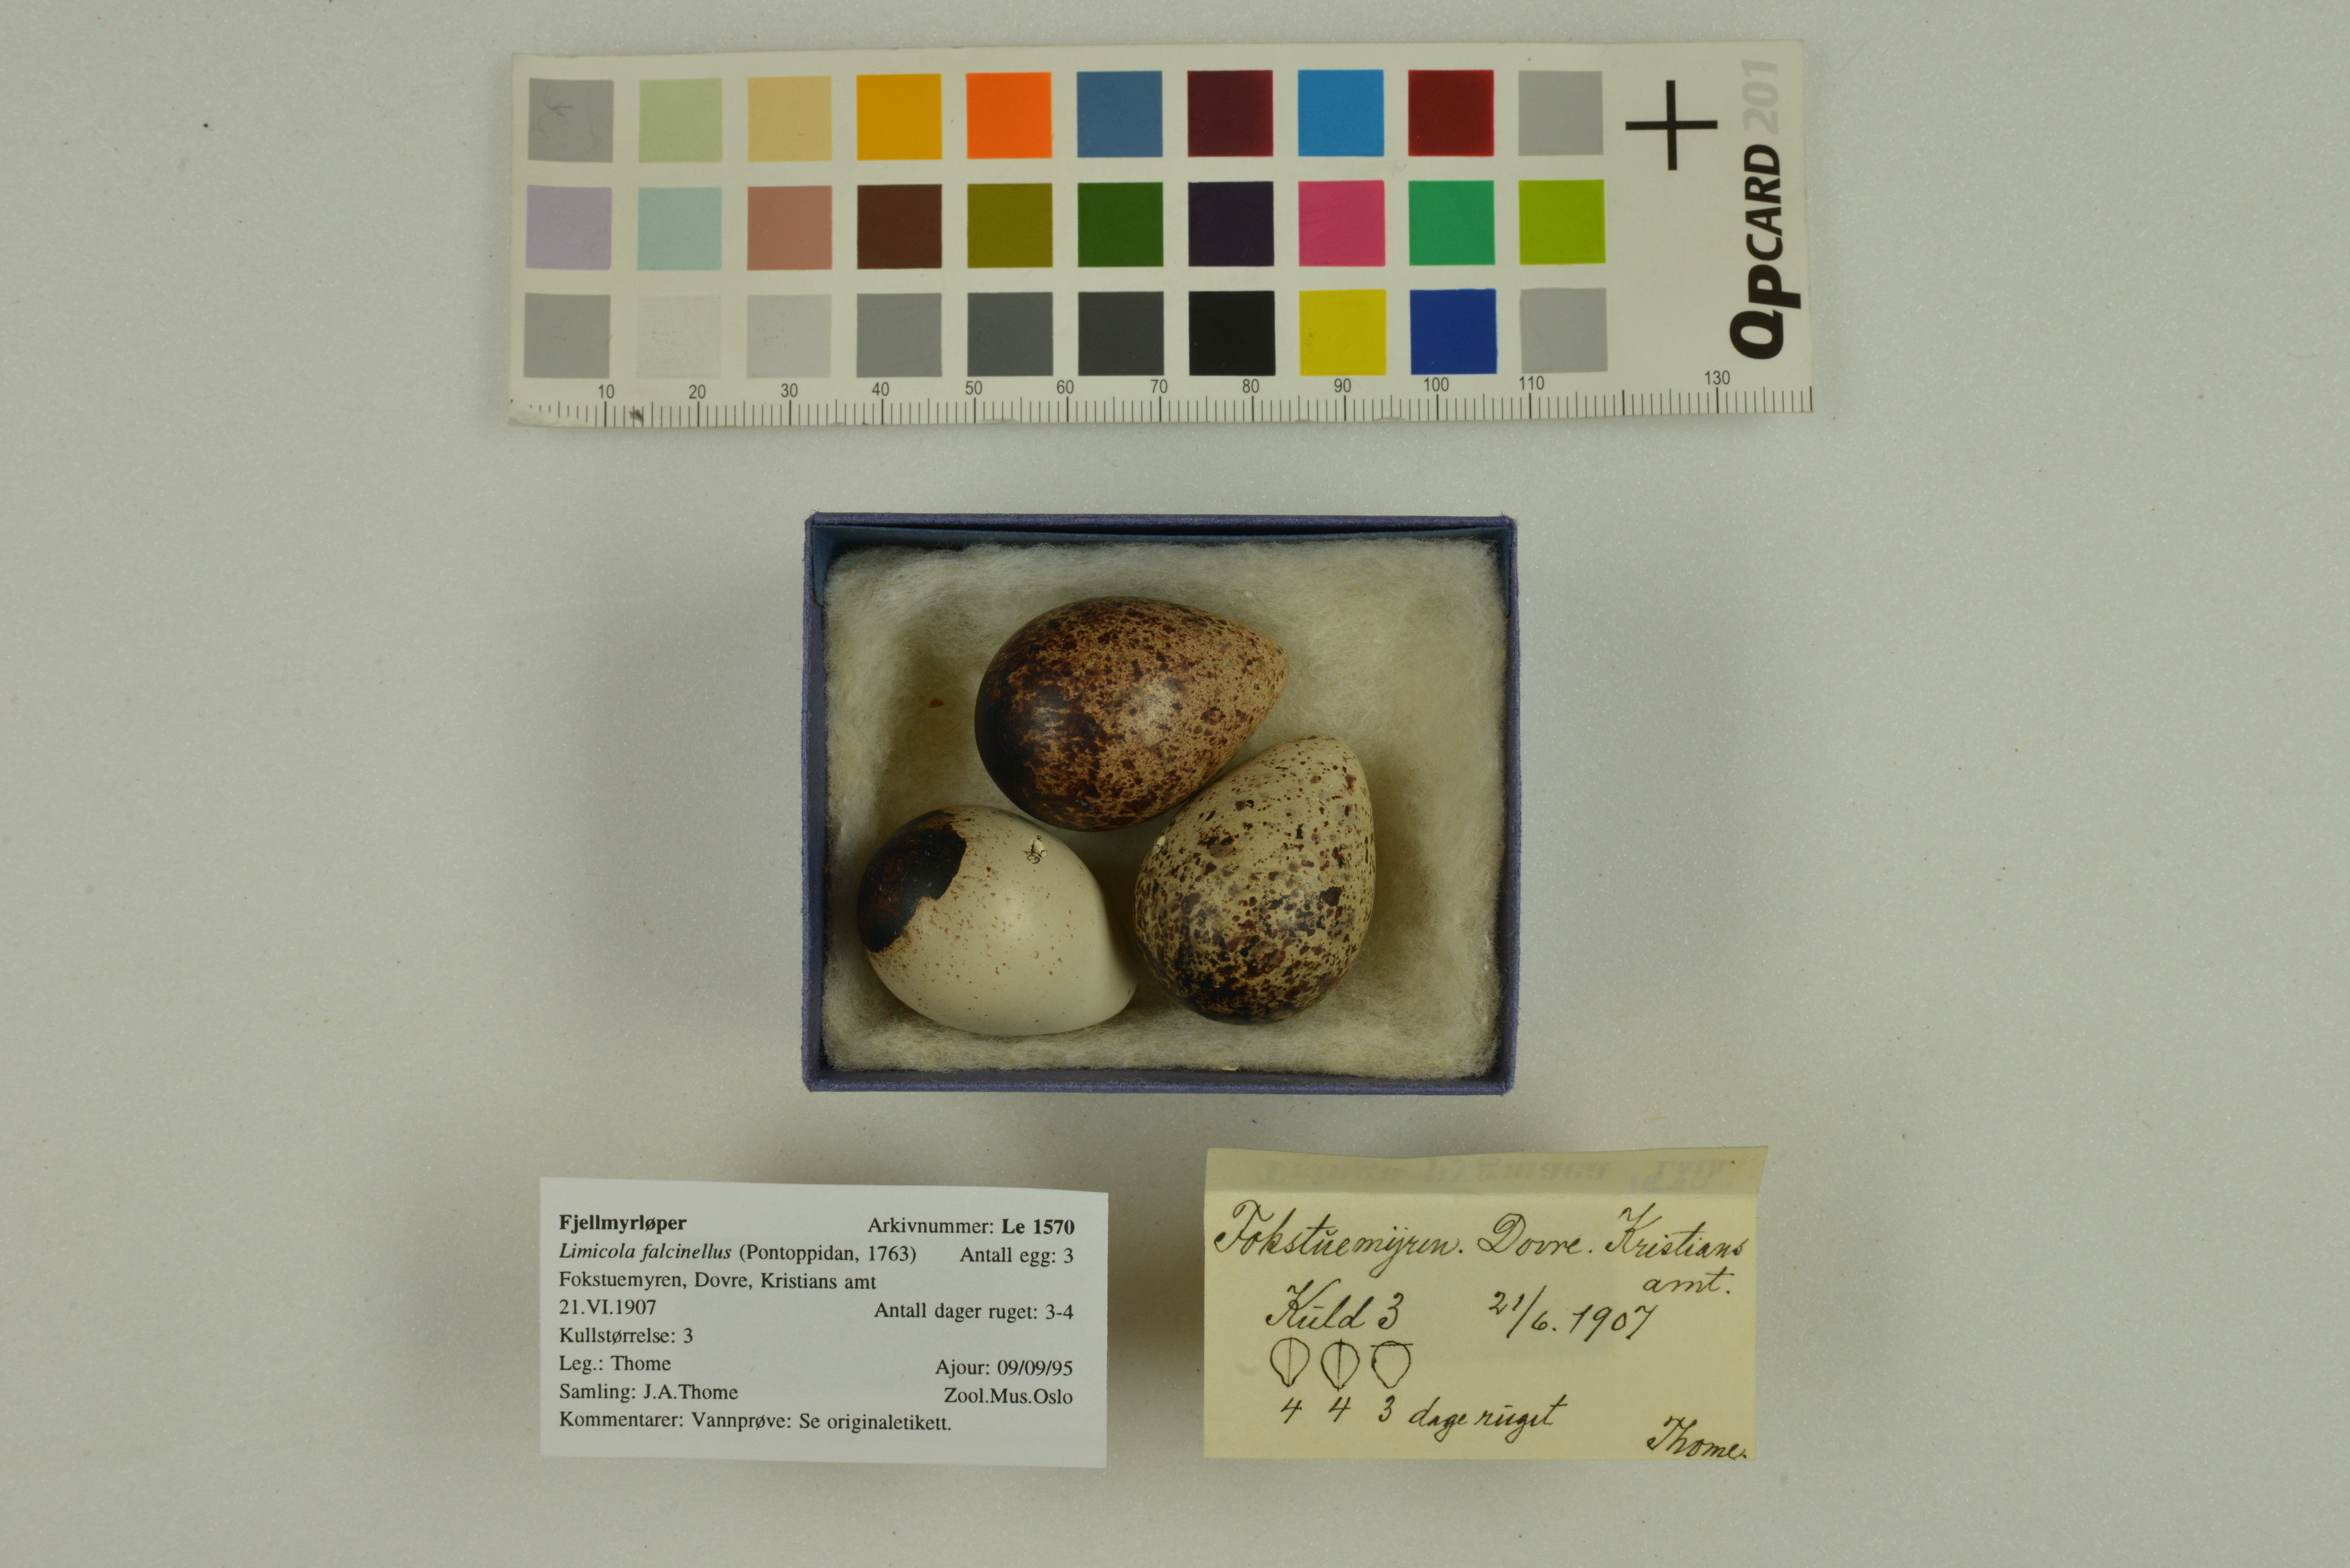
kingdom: Animalia
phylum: Chordata
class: Aves
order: Charadriiformes
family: Scolopacidae
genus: Calidris
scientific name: Calidris falcinellus
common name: Broad-billed sandpiper
